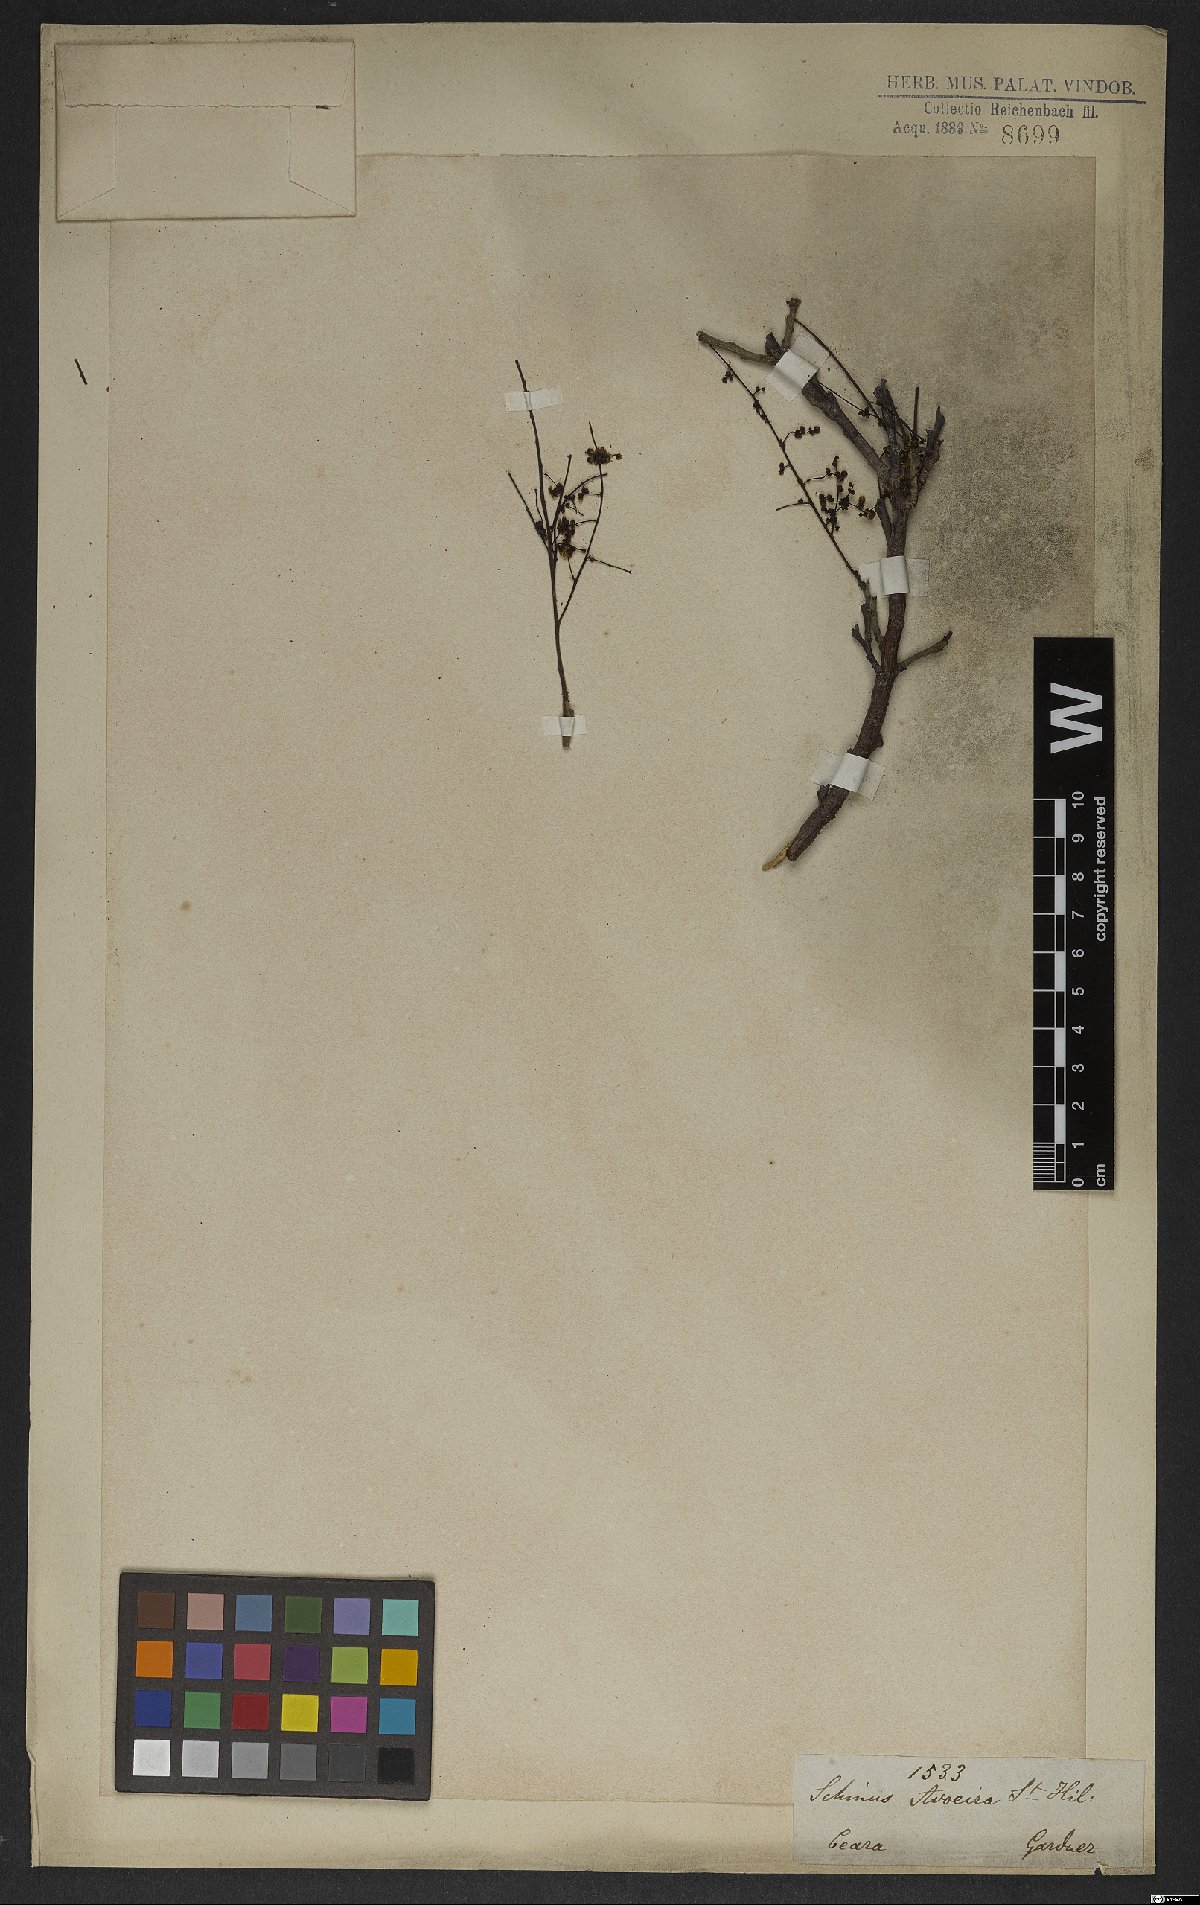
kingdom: Plantae
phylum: Tracheophyta
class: Magnoliopsida
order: Sapindales
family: Anacardiaceae
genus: Schinus
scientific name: Schinus areira
